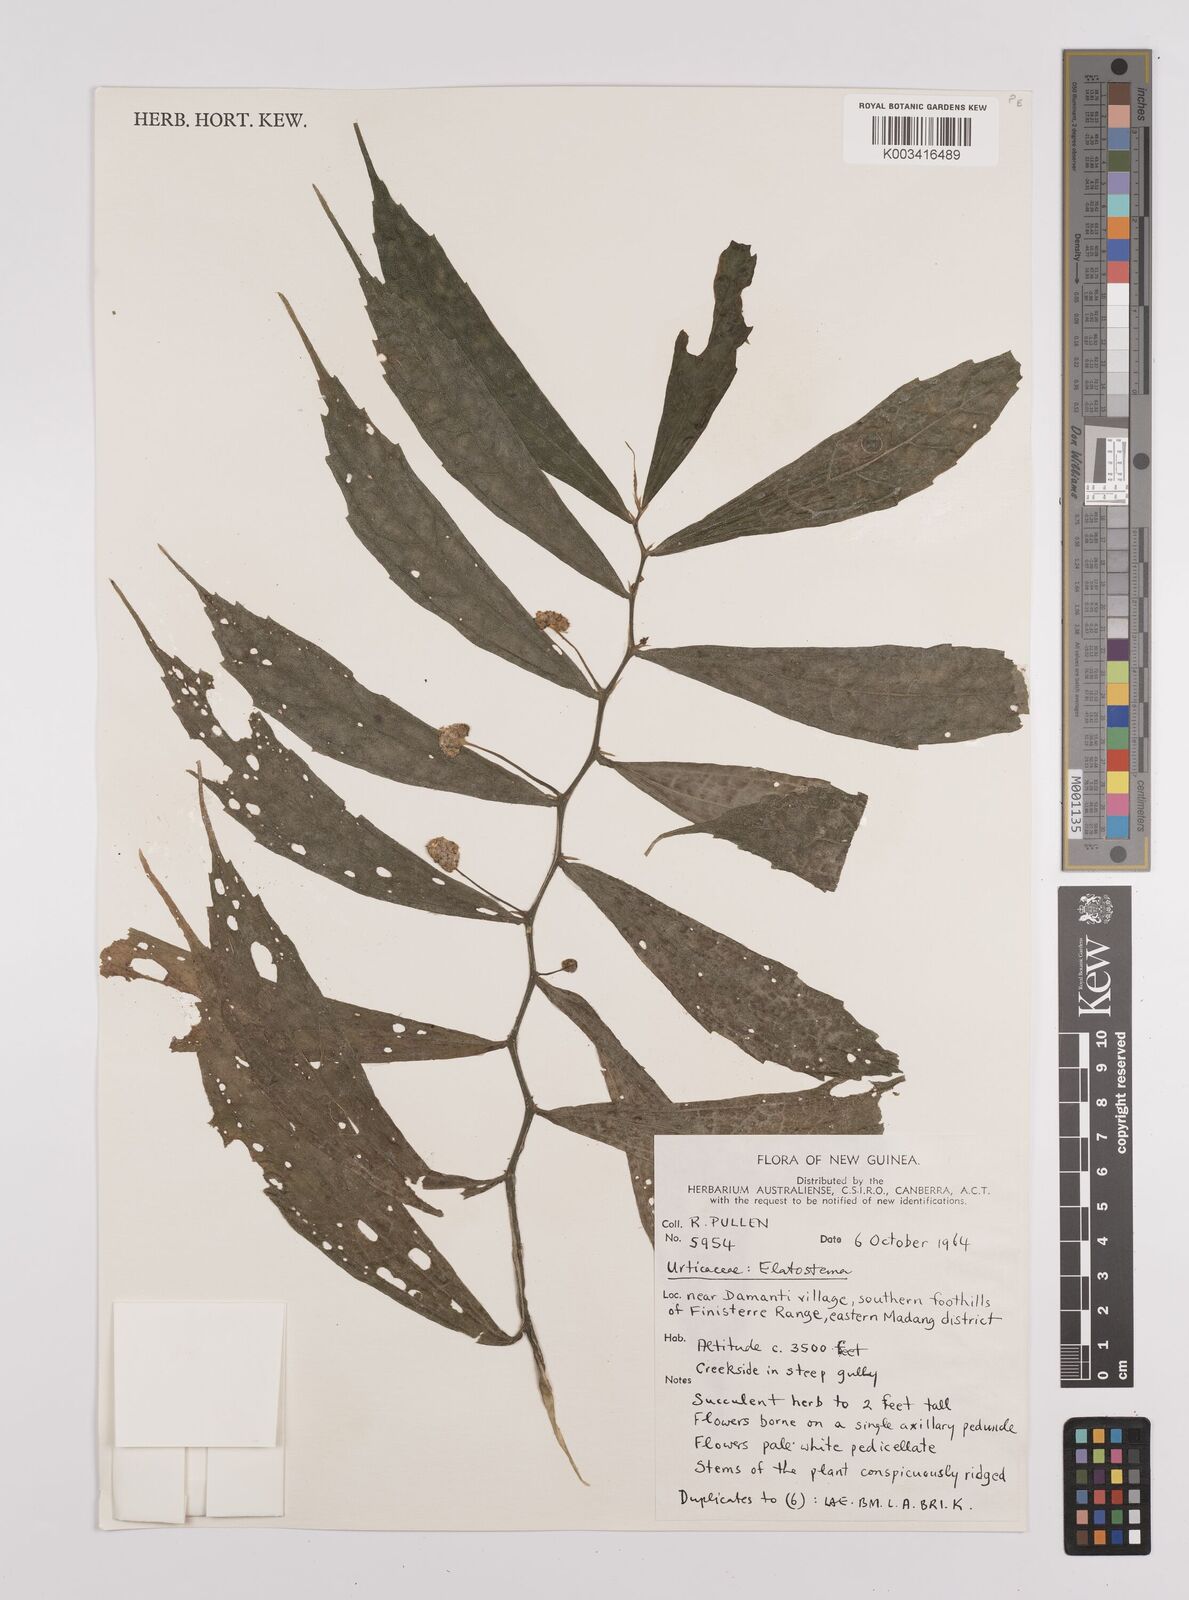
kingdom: Plantae
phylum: Tracheophyta
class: Magnoliopsida
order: Rosales
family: Urticaceae
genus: Elatostema
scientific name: Elatostema
